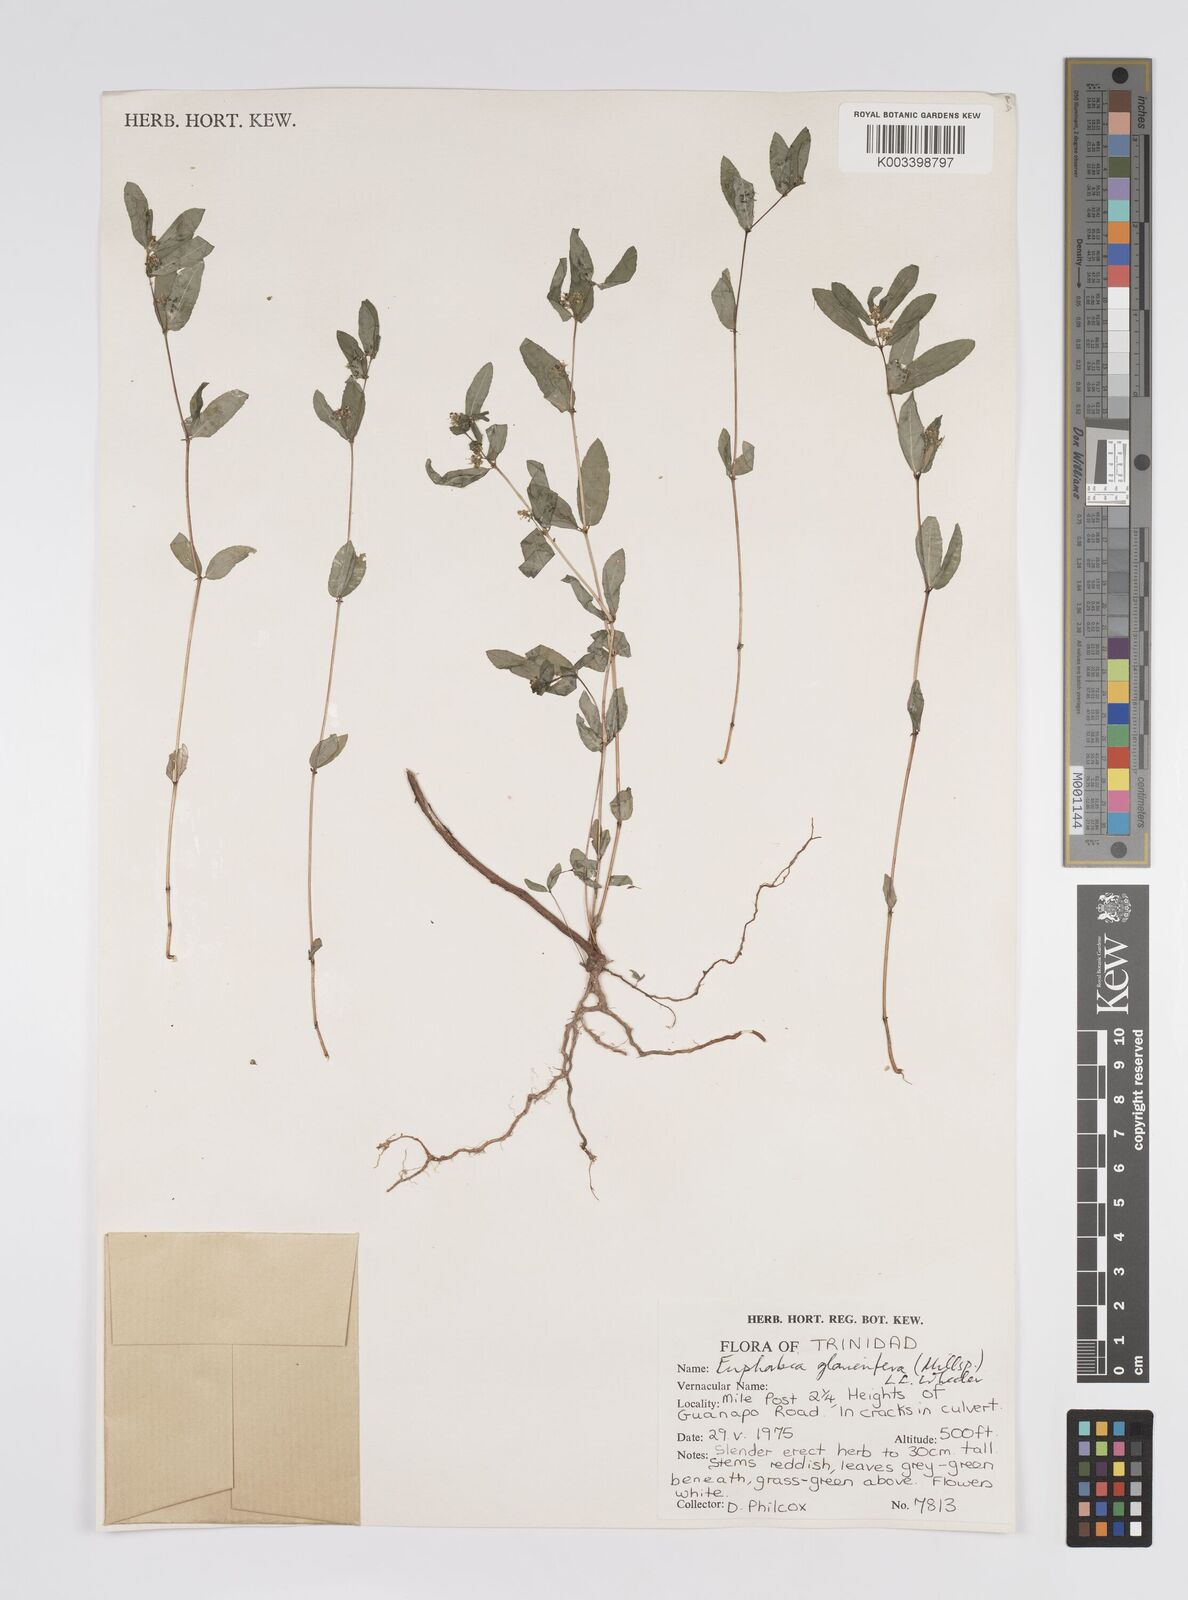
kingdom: Plantae
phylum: Tracheophyta
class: Magnoliopsida
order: Malpighiales
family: Euphorbiaceae
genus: Euphorbia
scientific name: Euphorbia hypericifolia
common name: Graceful sandmat
